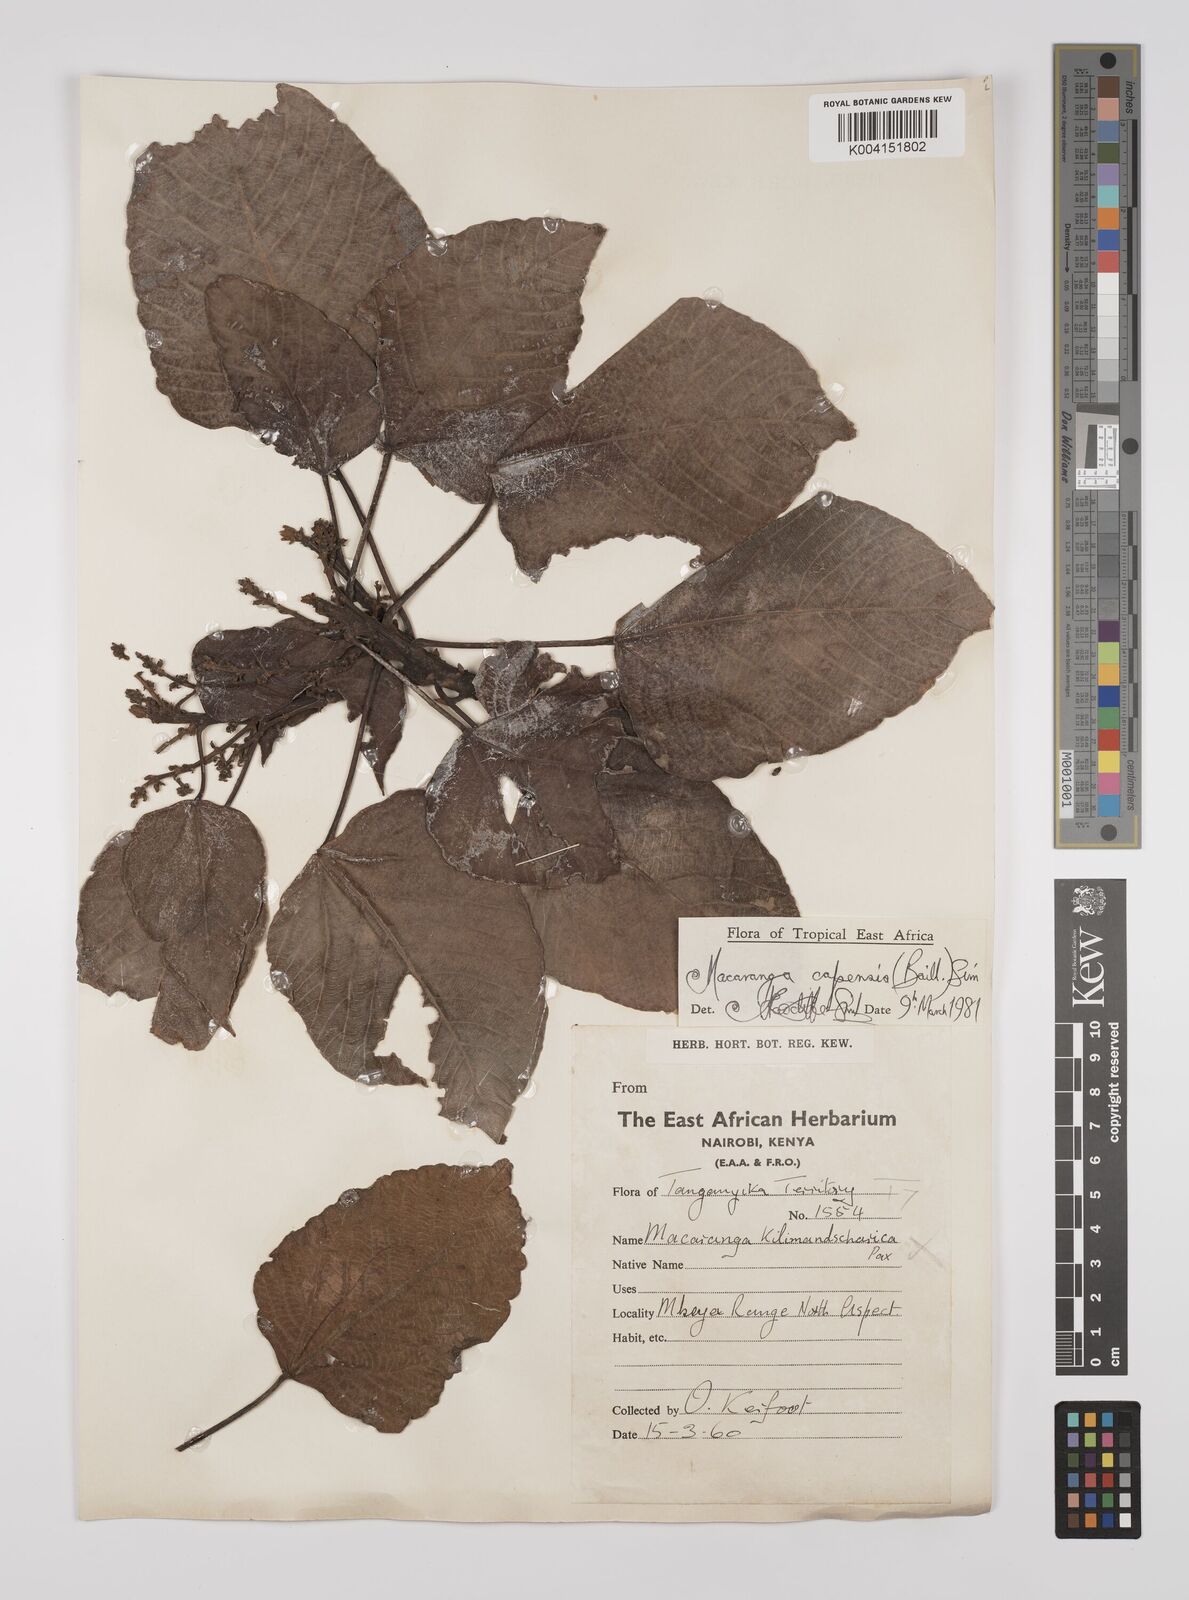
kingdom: Plantae
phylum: Tracheophyta
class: Magnoliopsida
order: Malpighiales
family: Euphorbiaceae
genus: Macaranga
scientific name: Macaranga capensis
